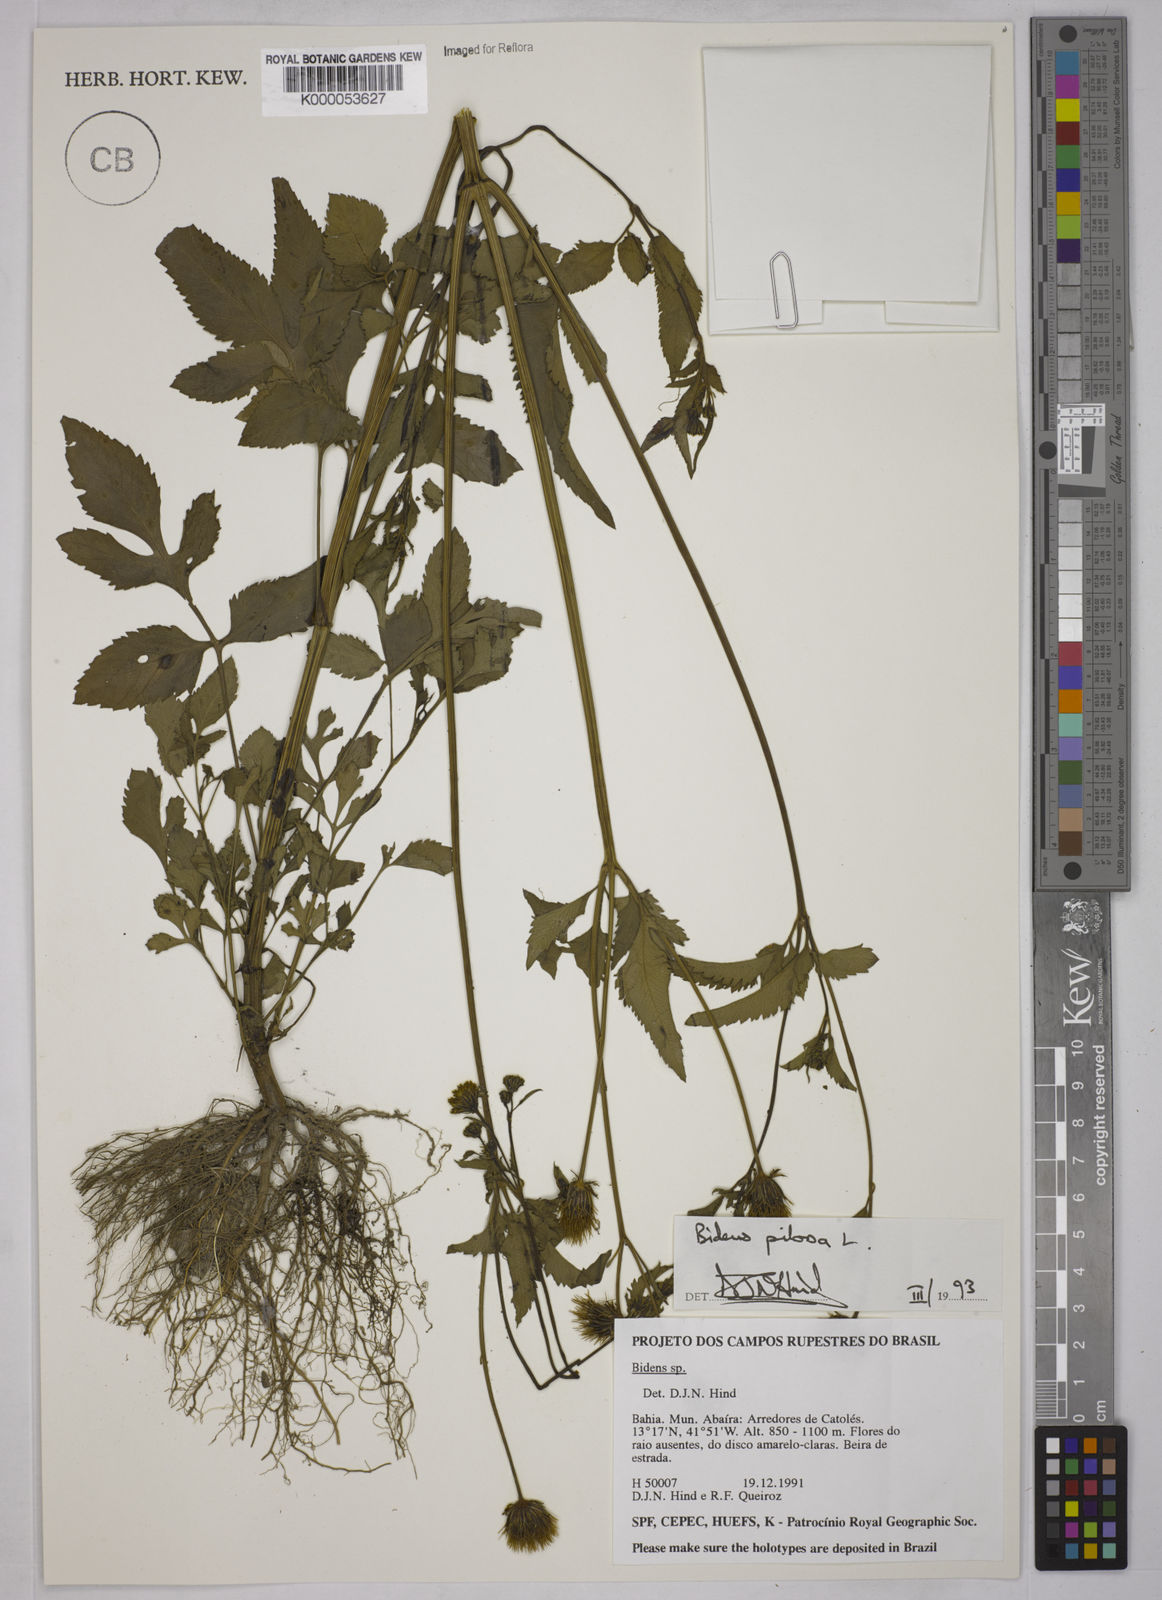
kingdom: Plantae
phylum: Tracheophyta
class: Magnoliopsida
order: Asterales
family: Asteraceae
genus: Bidens
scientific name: Bidens pilosa
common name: Black-jack
